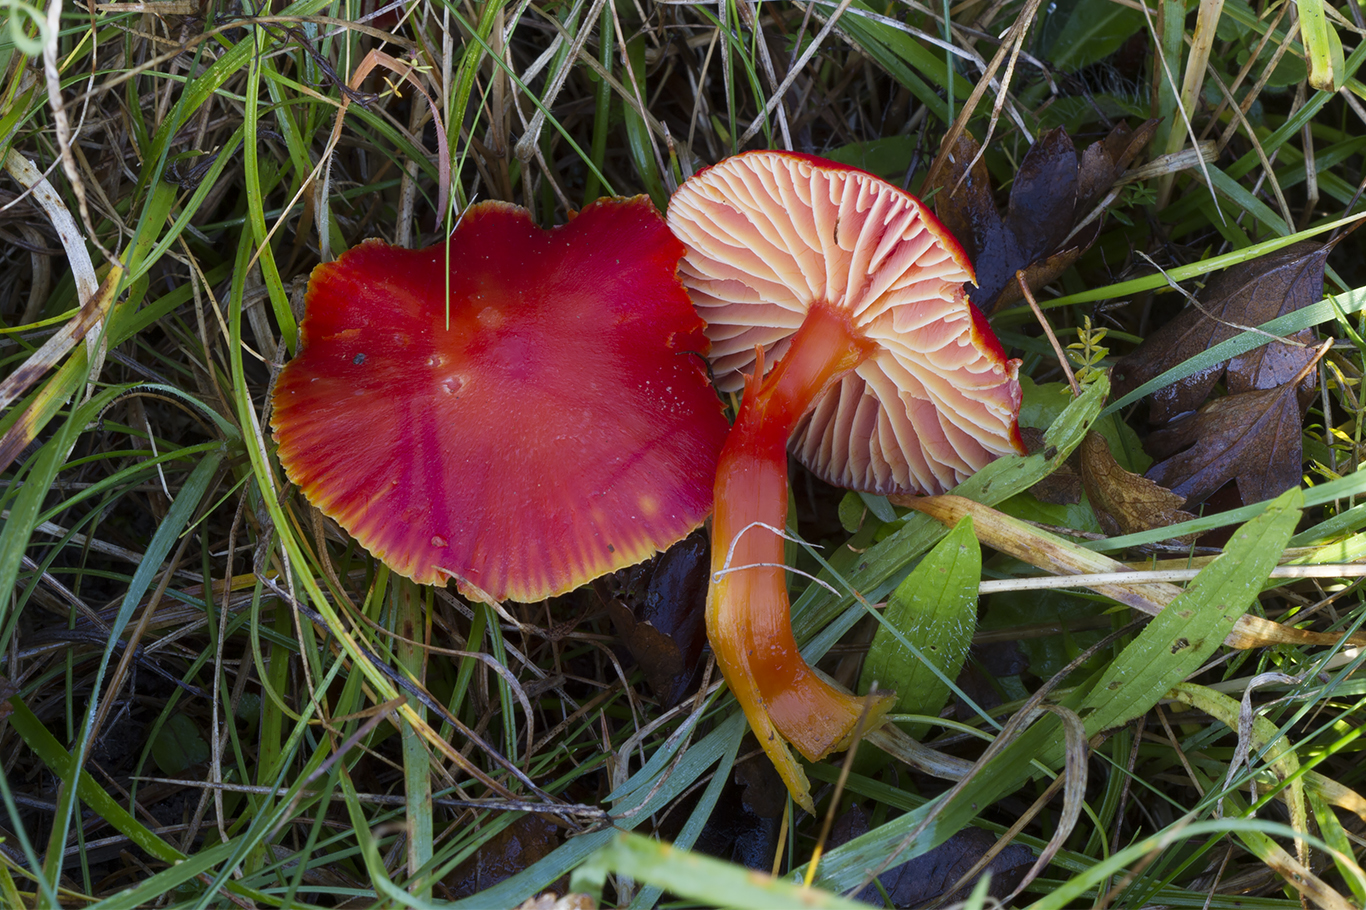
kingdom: Fungi
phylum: Basidiomycota
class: Agaricomycetes
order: Agaricales
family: Hygrophoraceae
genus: Hygrocybe
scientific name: Hygrocybe coccinea
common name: cinnober-vokshat
